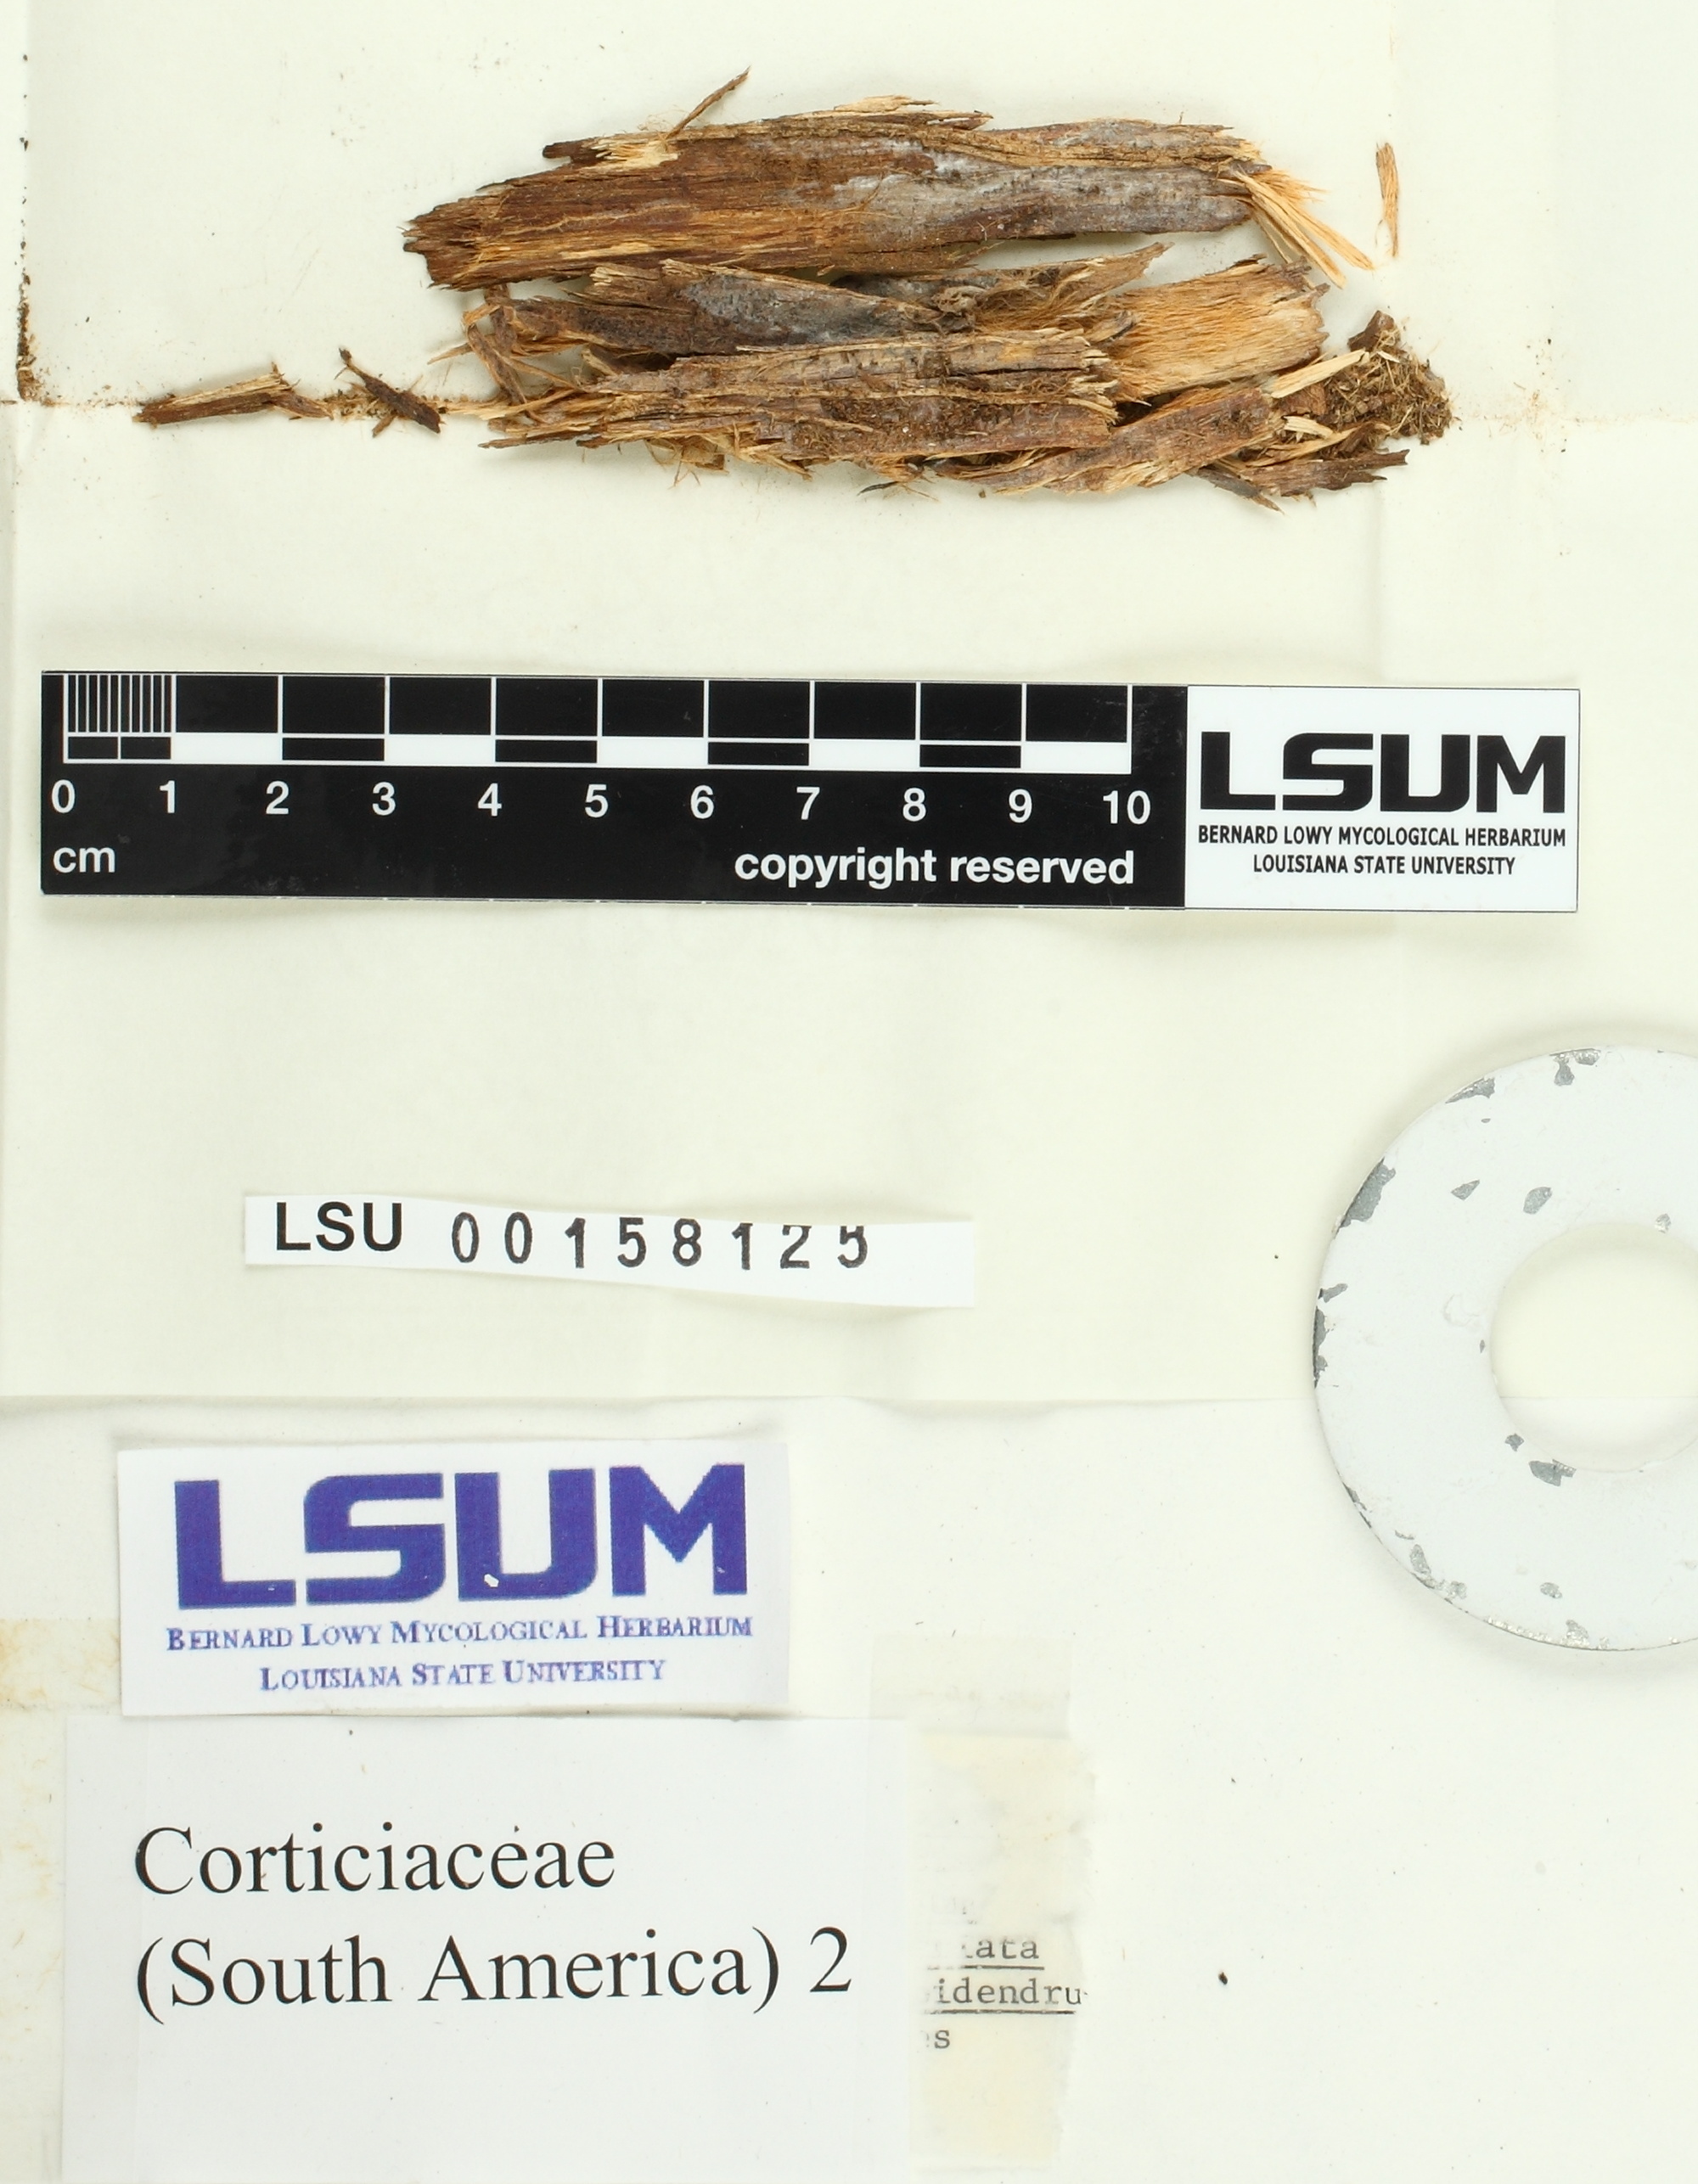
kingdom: Fungi
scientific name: Fungi
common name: Fungi
